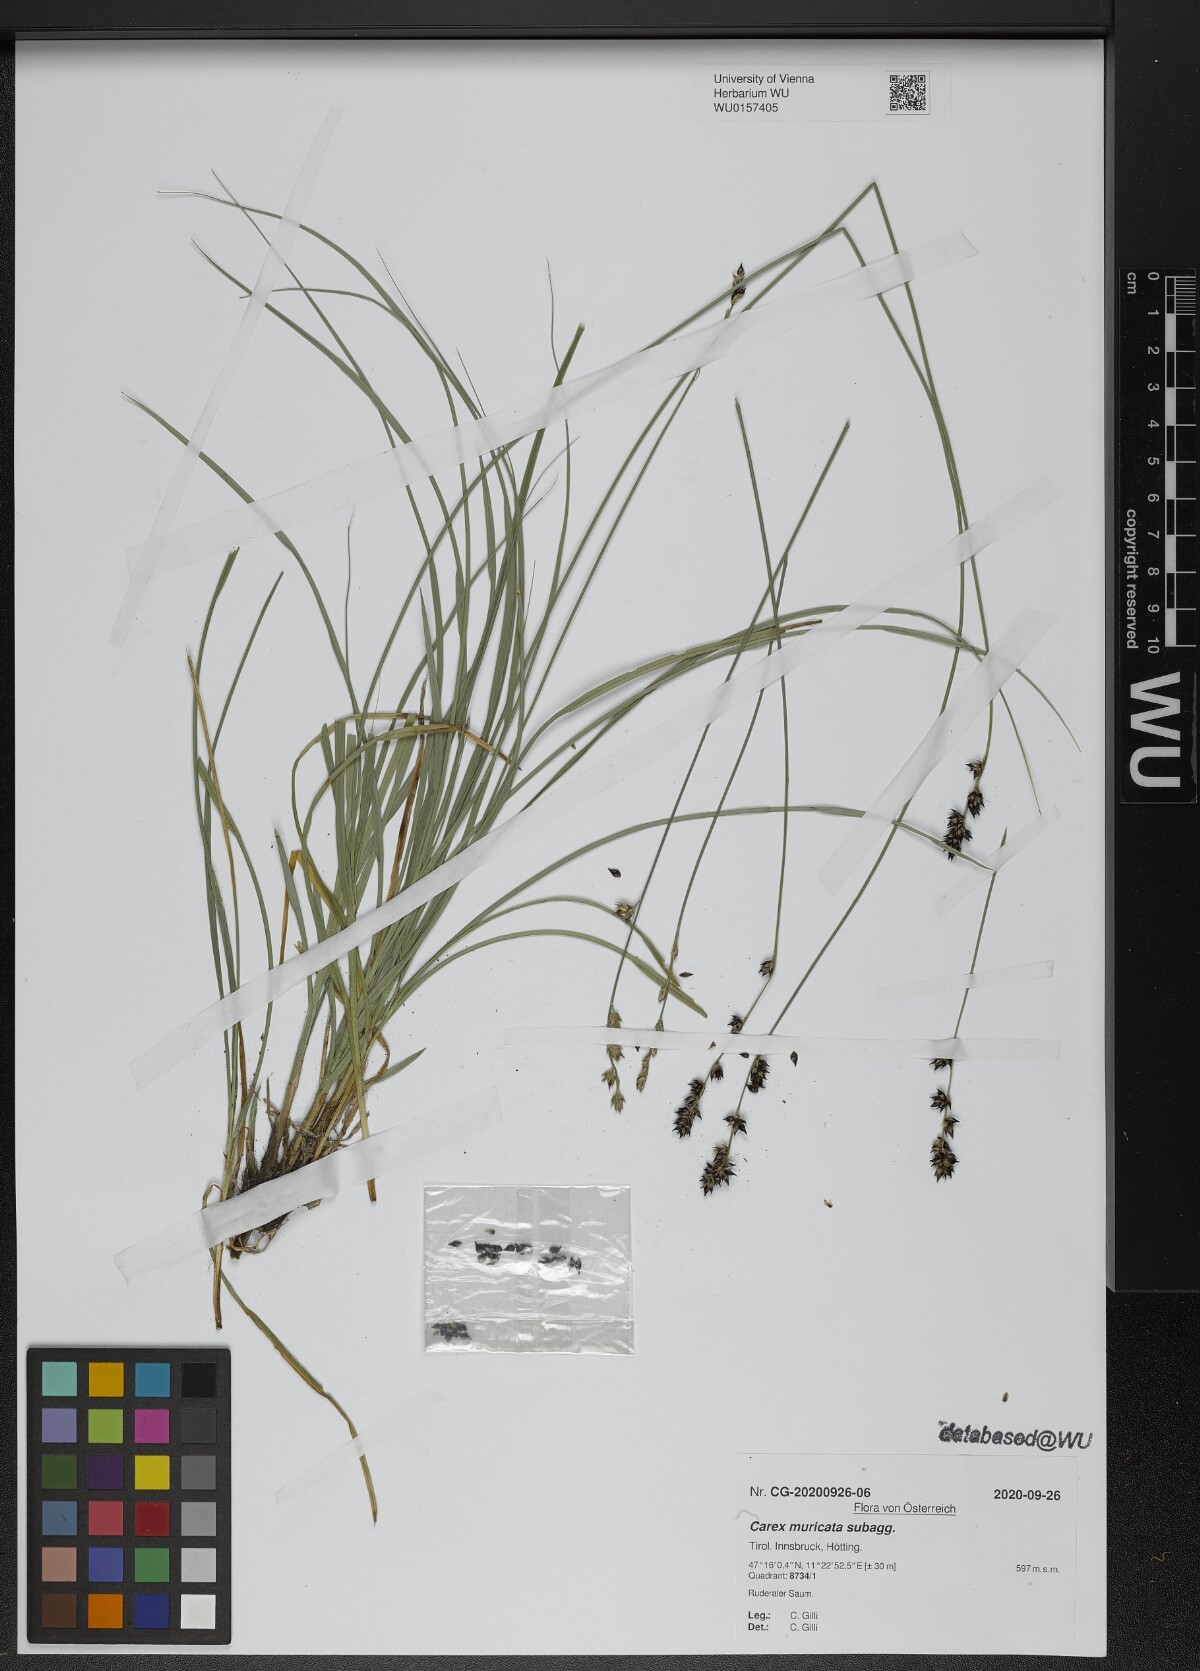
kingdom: Plantae
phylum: Tracheophyta
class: Liliopsida
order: Poales
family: Cyperaceae
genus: Carex
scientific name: Carex muricata
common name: Rough sedge
